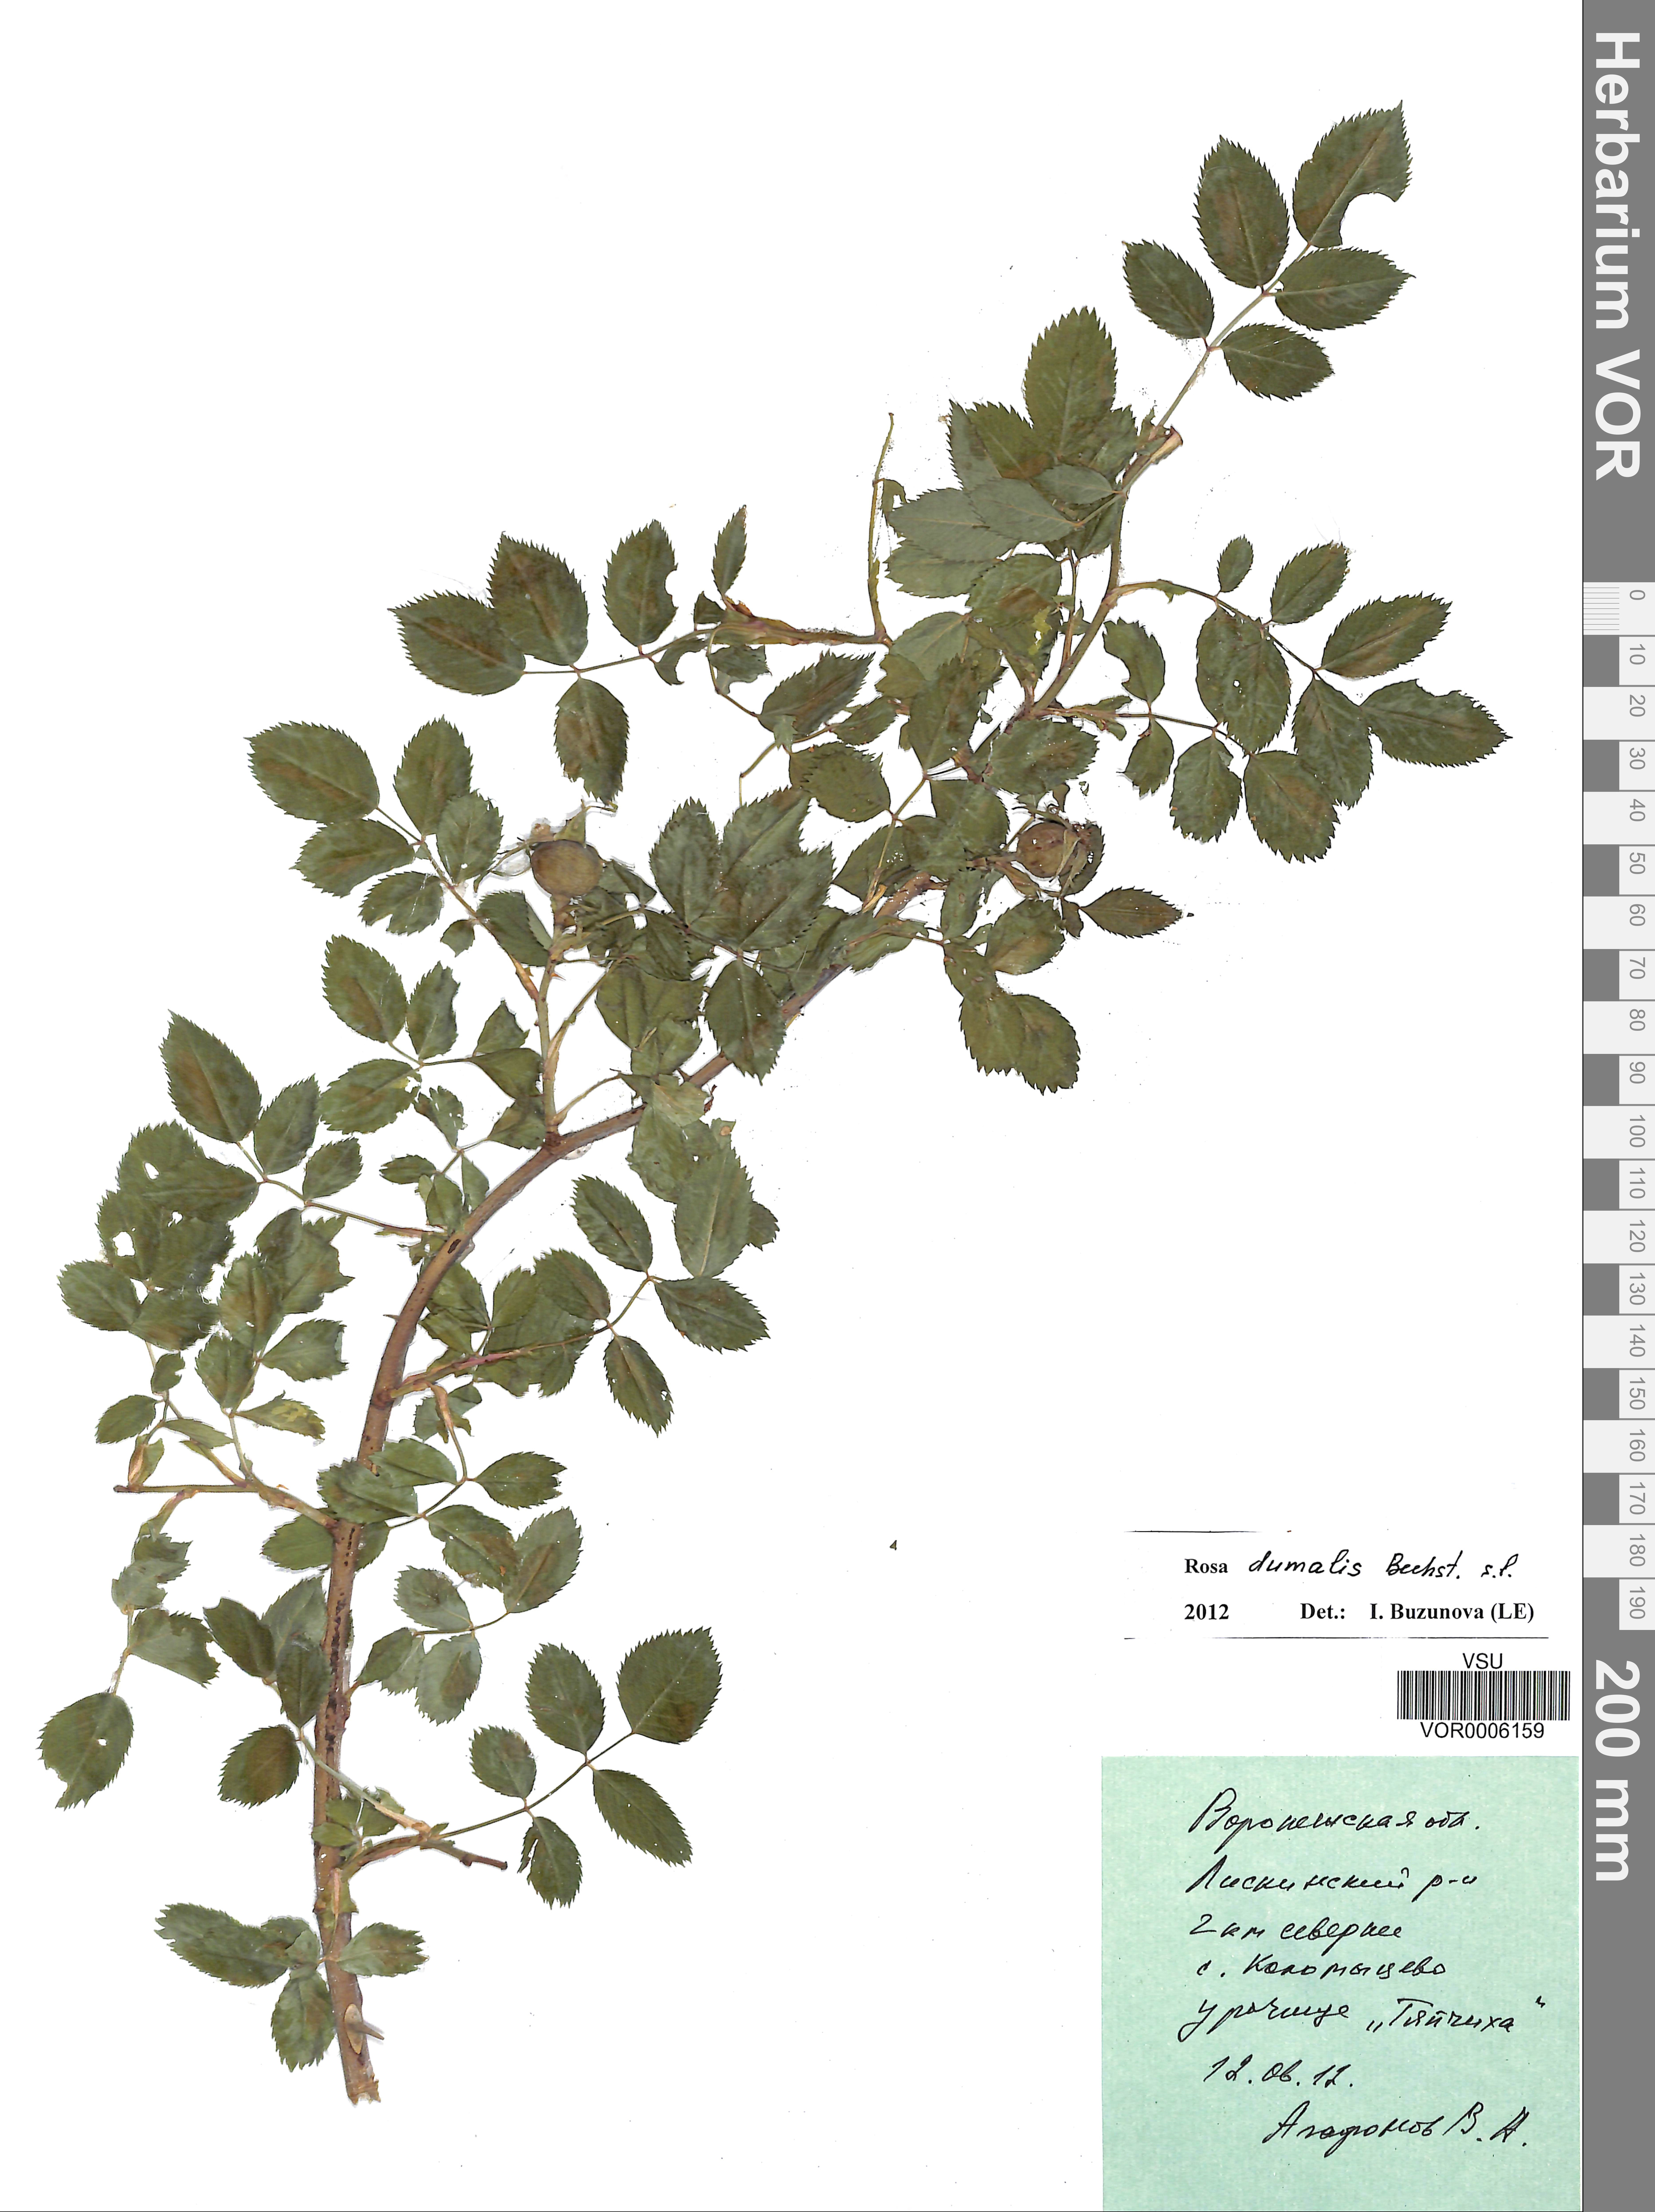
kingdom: Plantae
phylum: Tracheophyta
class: Magnoliopsida
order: Rosales
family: Rosaceae
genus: Rosa
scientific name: Rosa dumalis
